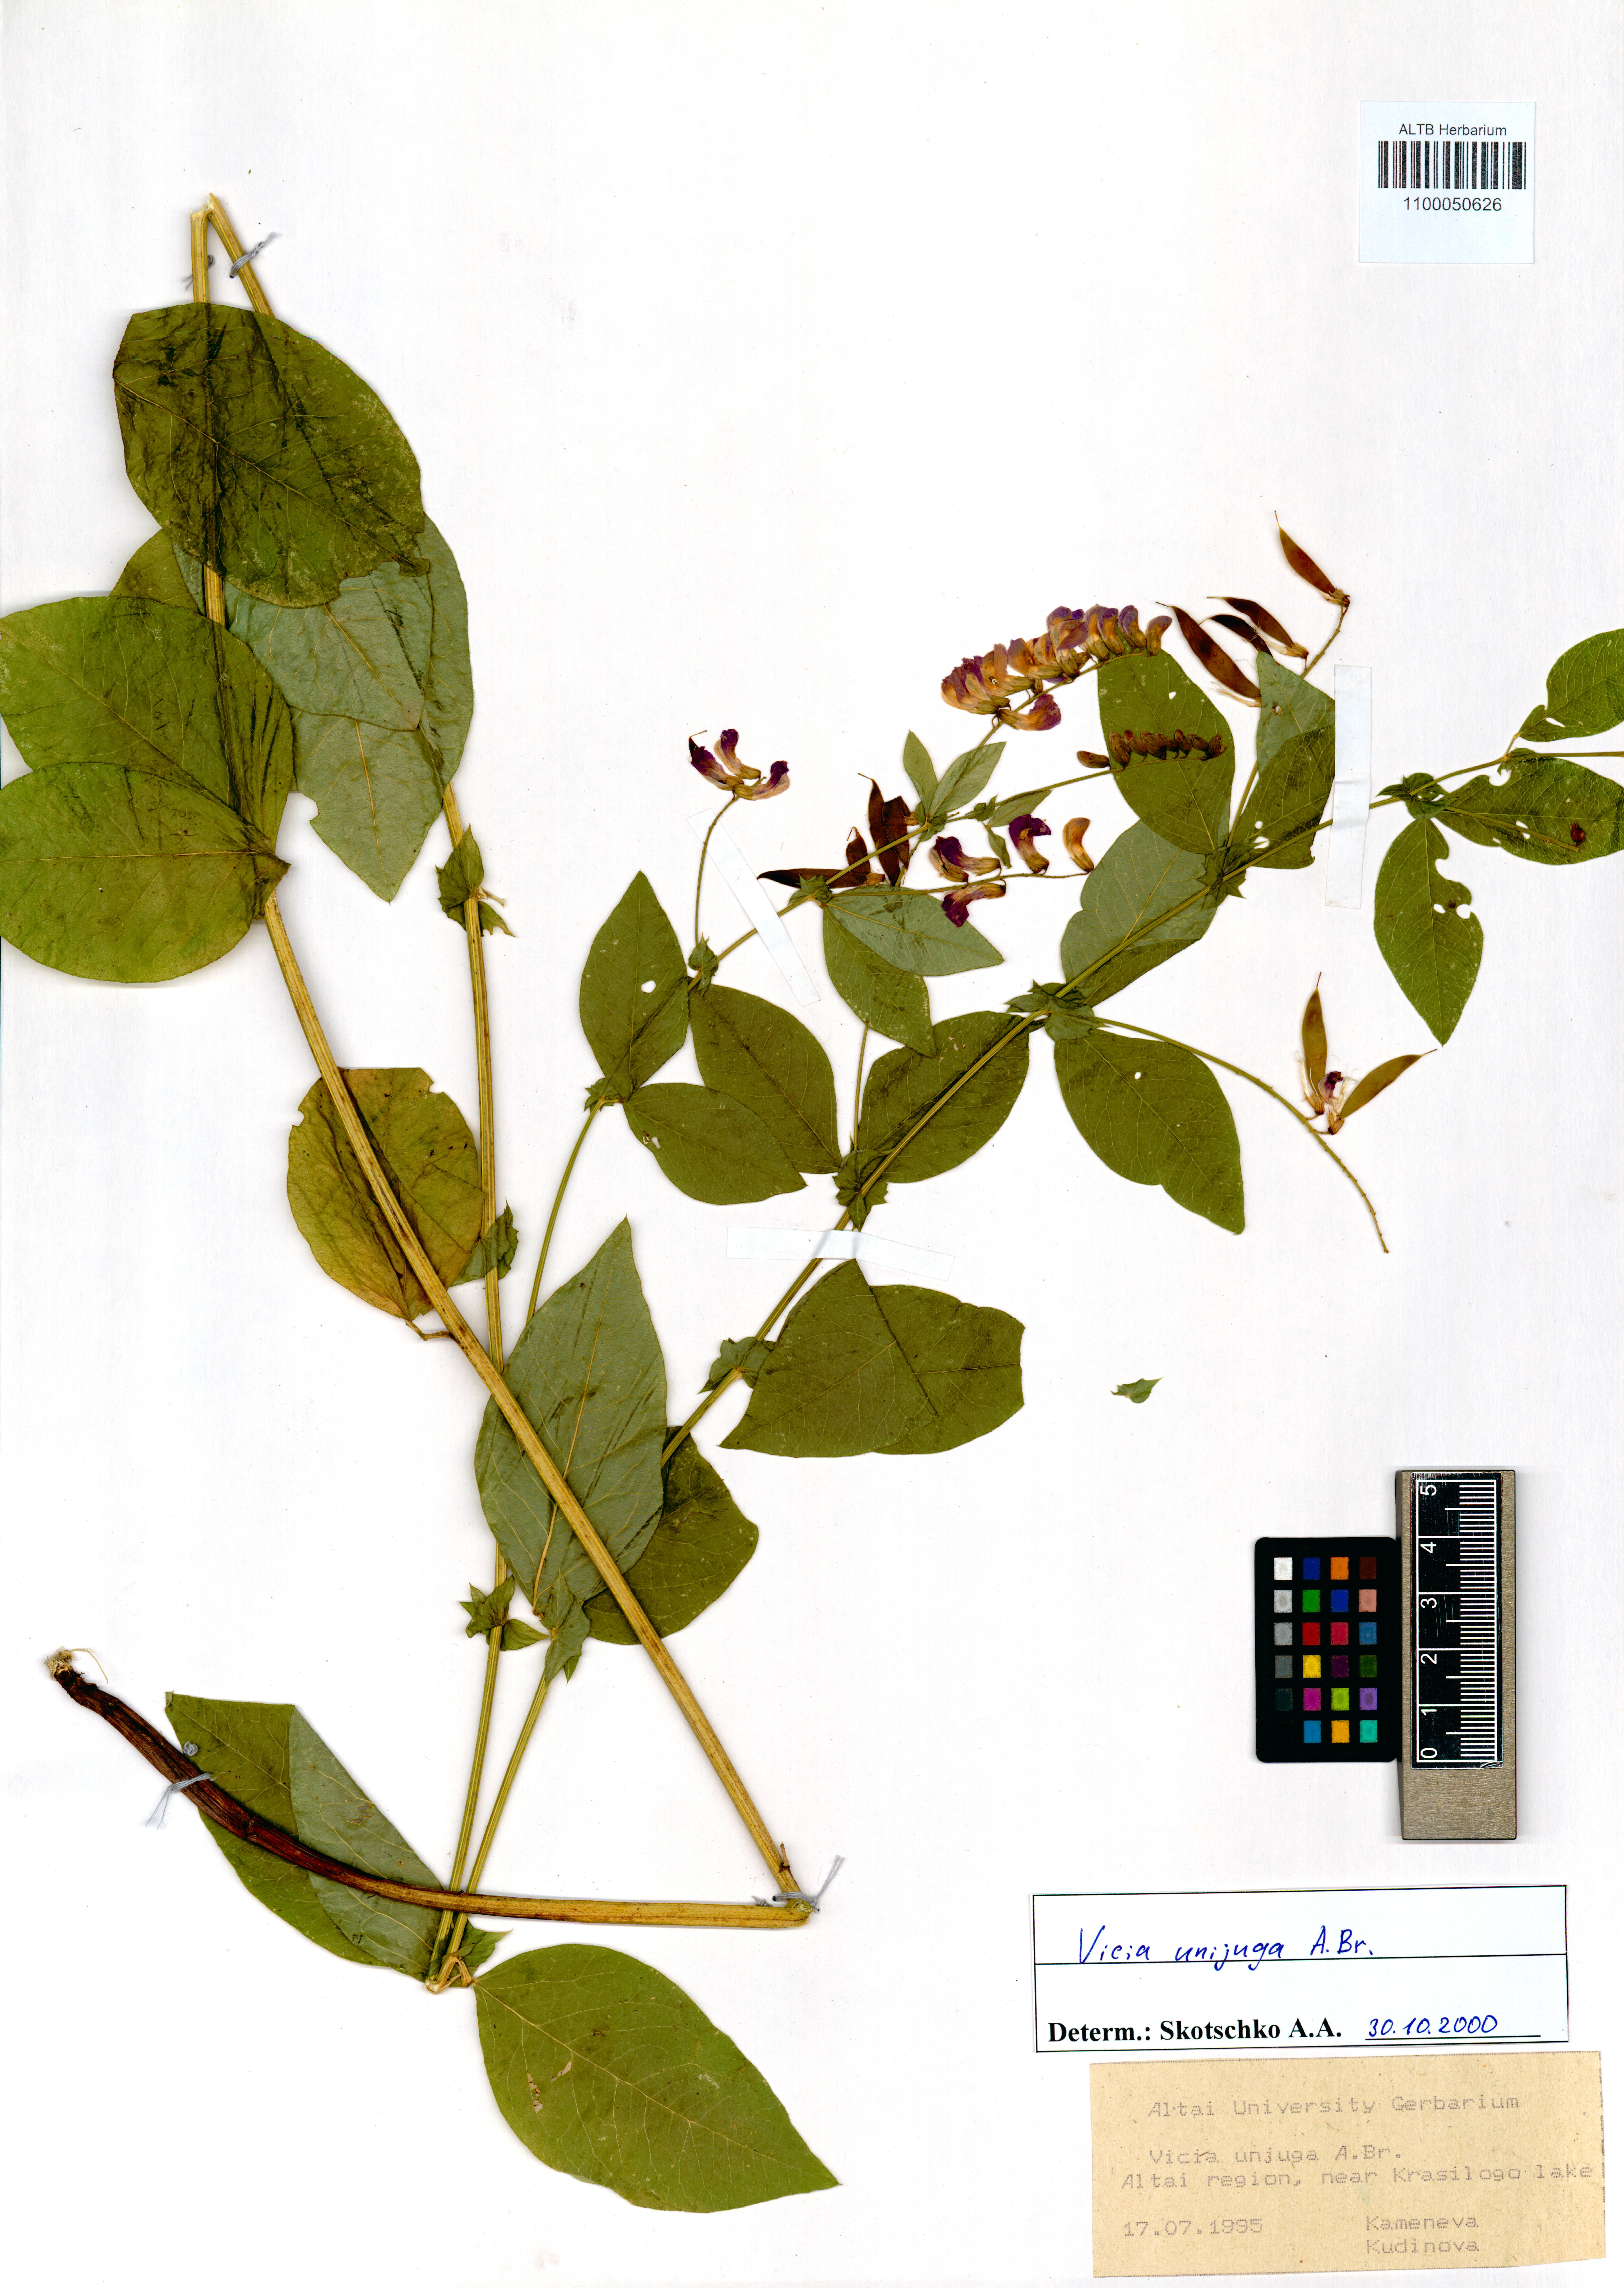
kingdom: Plantae
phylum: Tracheophyta
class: Magnoliopsida
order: Fabales
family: Fabaceae
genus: Vicia
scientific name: Vicia unijuga
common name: Two-leaf vetch
